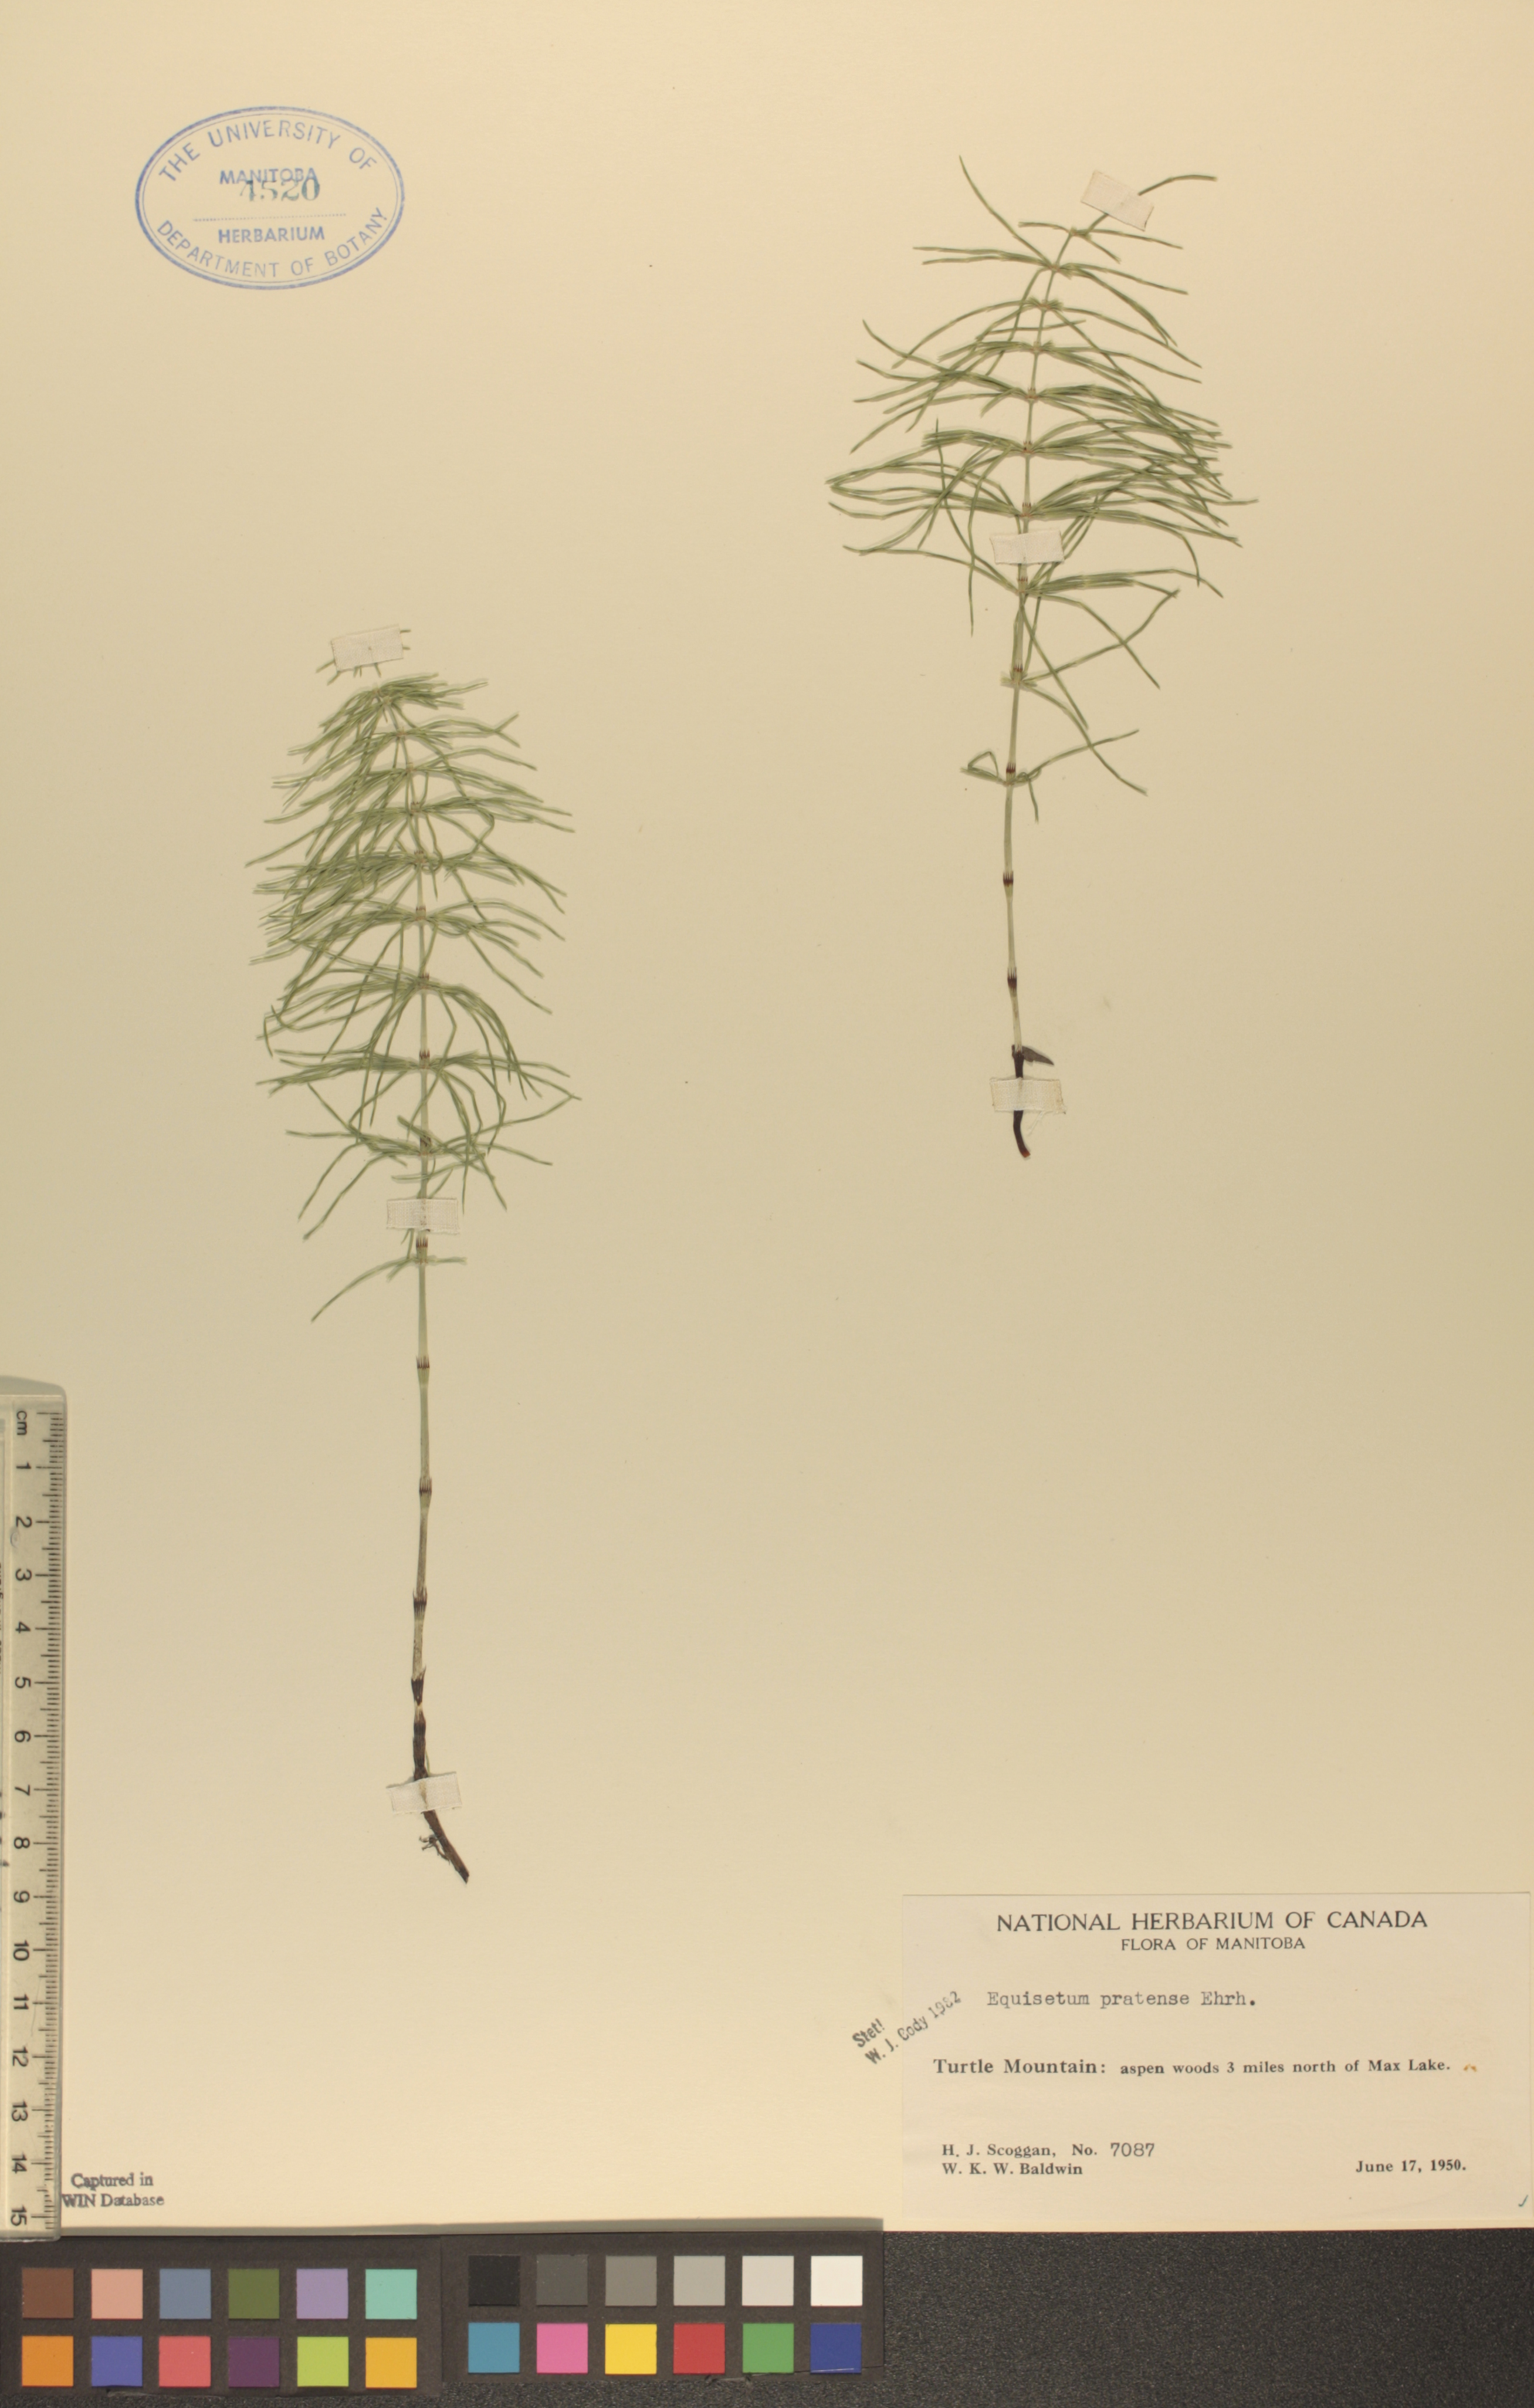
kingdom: Plantae
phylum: Tracheophyta
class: Polypodiopsida
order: Equisetales
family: Equisetaceae
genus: Equisetum
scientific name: Equisetum pratense
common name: Meadow horsetail
